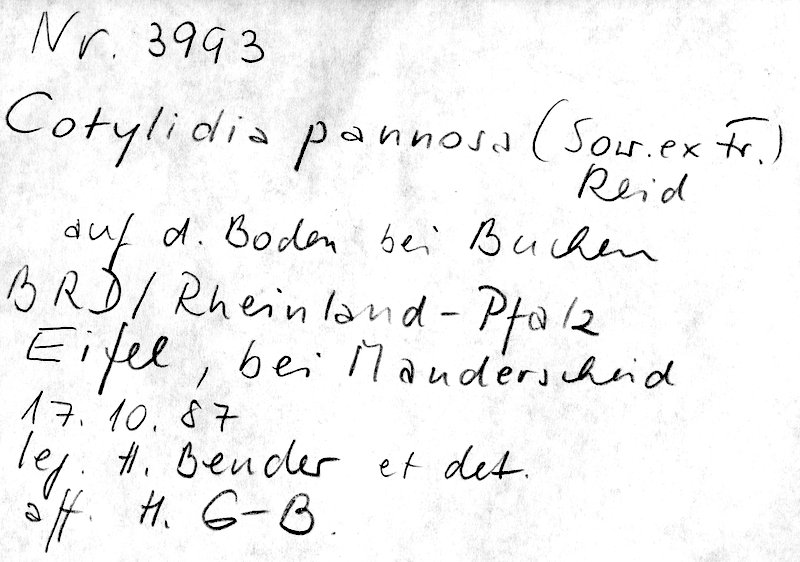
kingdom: Plantae
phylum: Tracheophyta
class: Magnoliopsida
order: Fagales
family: Fagaceae
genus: Fagus
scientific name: Fagus sylvatica
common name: Beech
